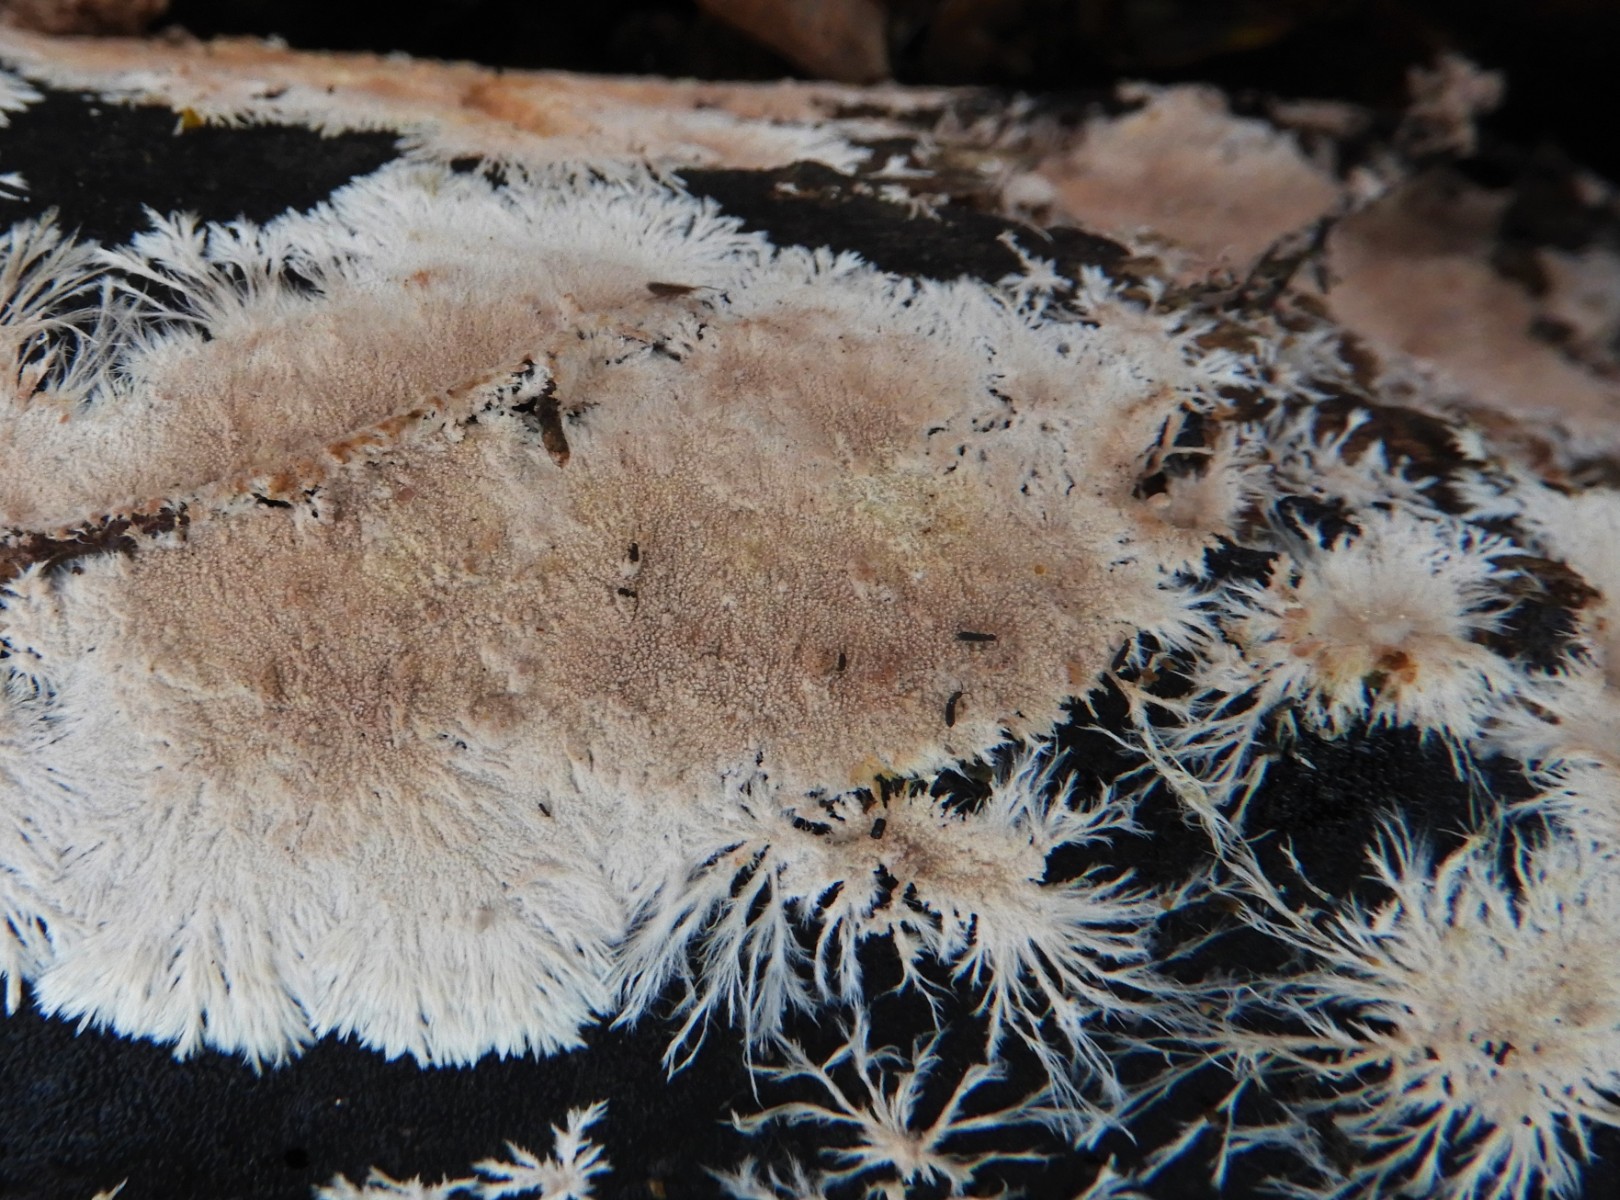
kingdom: Fungi
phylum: Basidiomycota
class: Agaricomycetes
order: Polyporales
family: Steccherinaceae
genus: Steccherinum
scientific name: Steccherinum fimbriatum
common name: trådet skønpig
